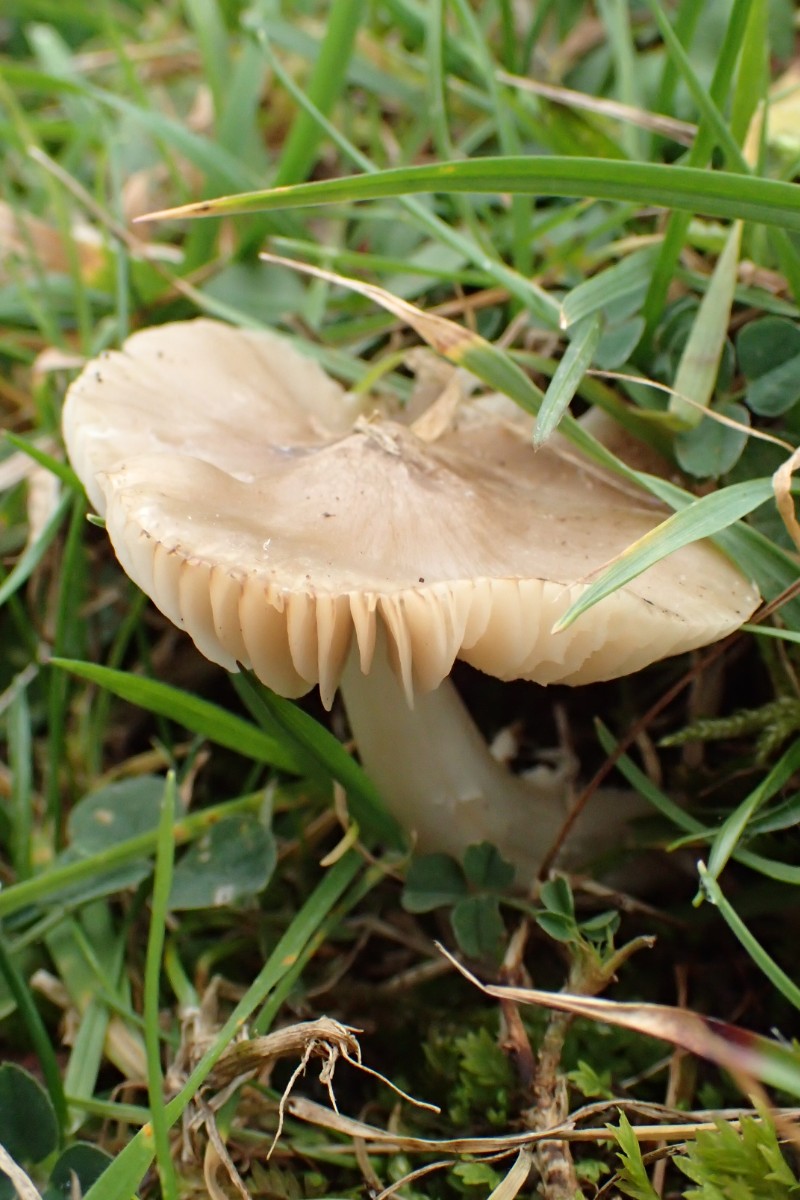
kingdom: Fungi
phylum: Basidiomycota
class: Agaricomycetes
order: Agaricales
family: Hygrophoraceae
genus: Cuphophyllus
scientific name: Cuphophyllus fornicatus
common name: gråbrun vokshat
